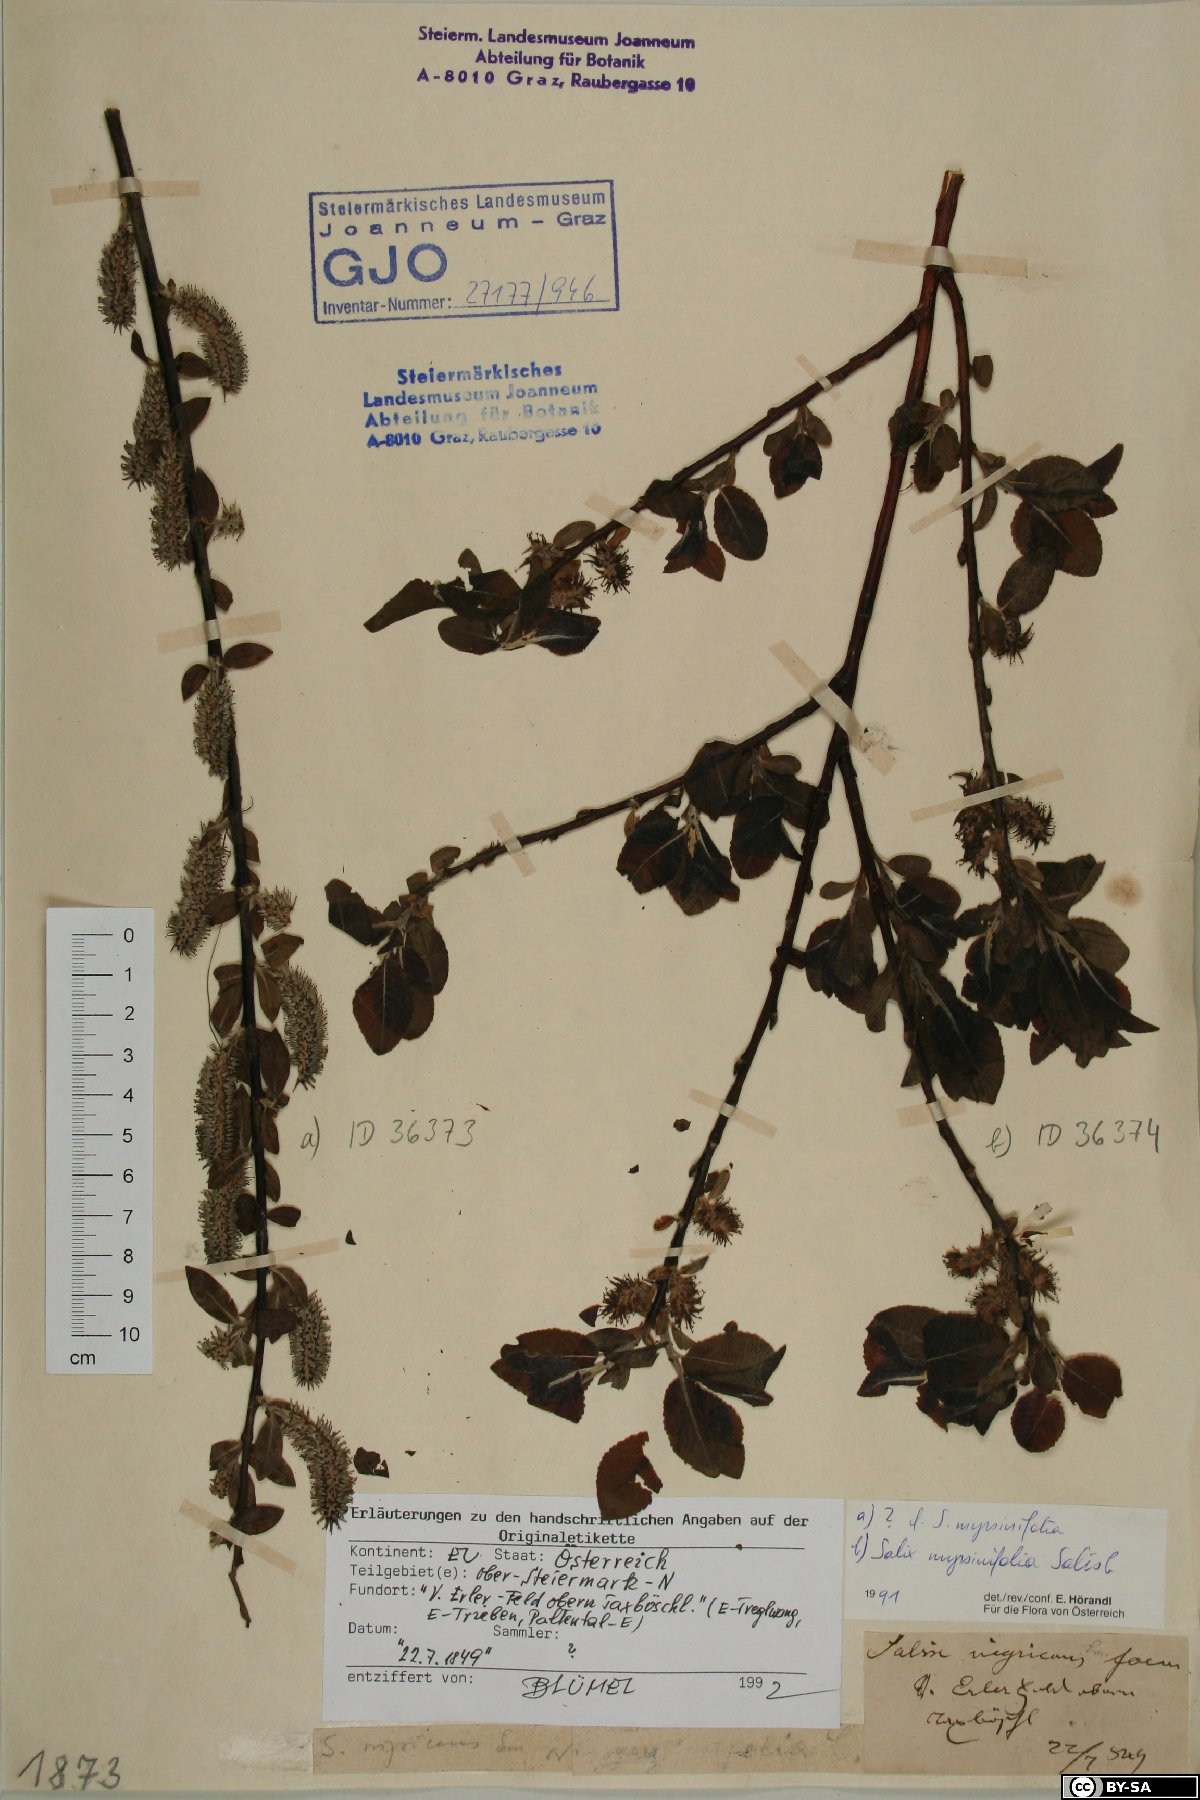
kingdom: Plantae
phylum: Tracheophyta
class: Magnoliopsida
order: Malpighiales
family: Salicaceae
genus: Salix
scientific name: Salix myrsinifolia
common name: Dark-leaved willow
